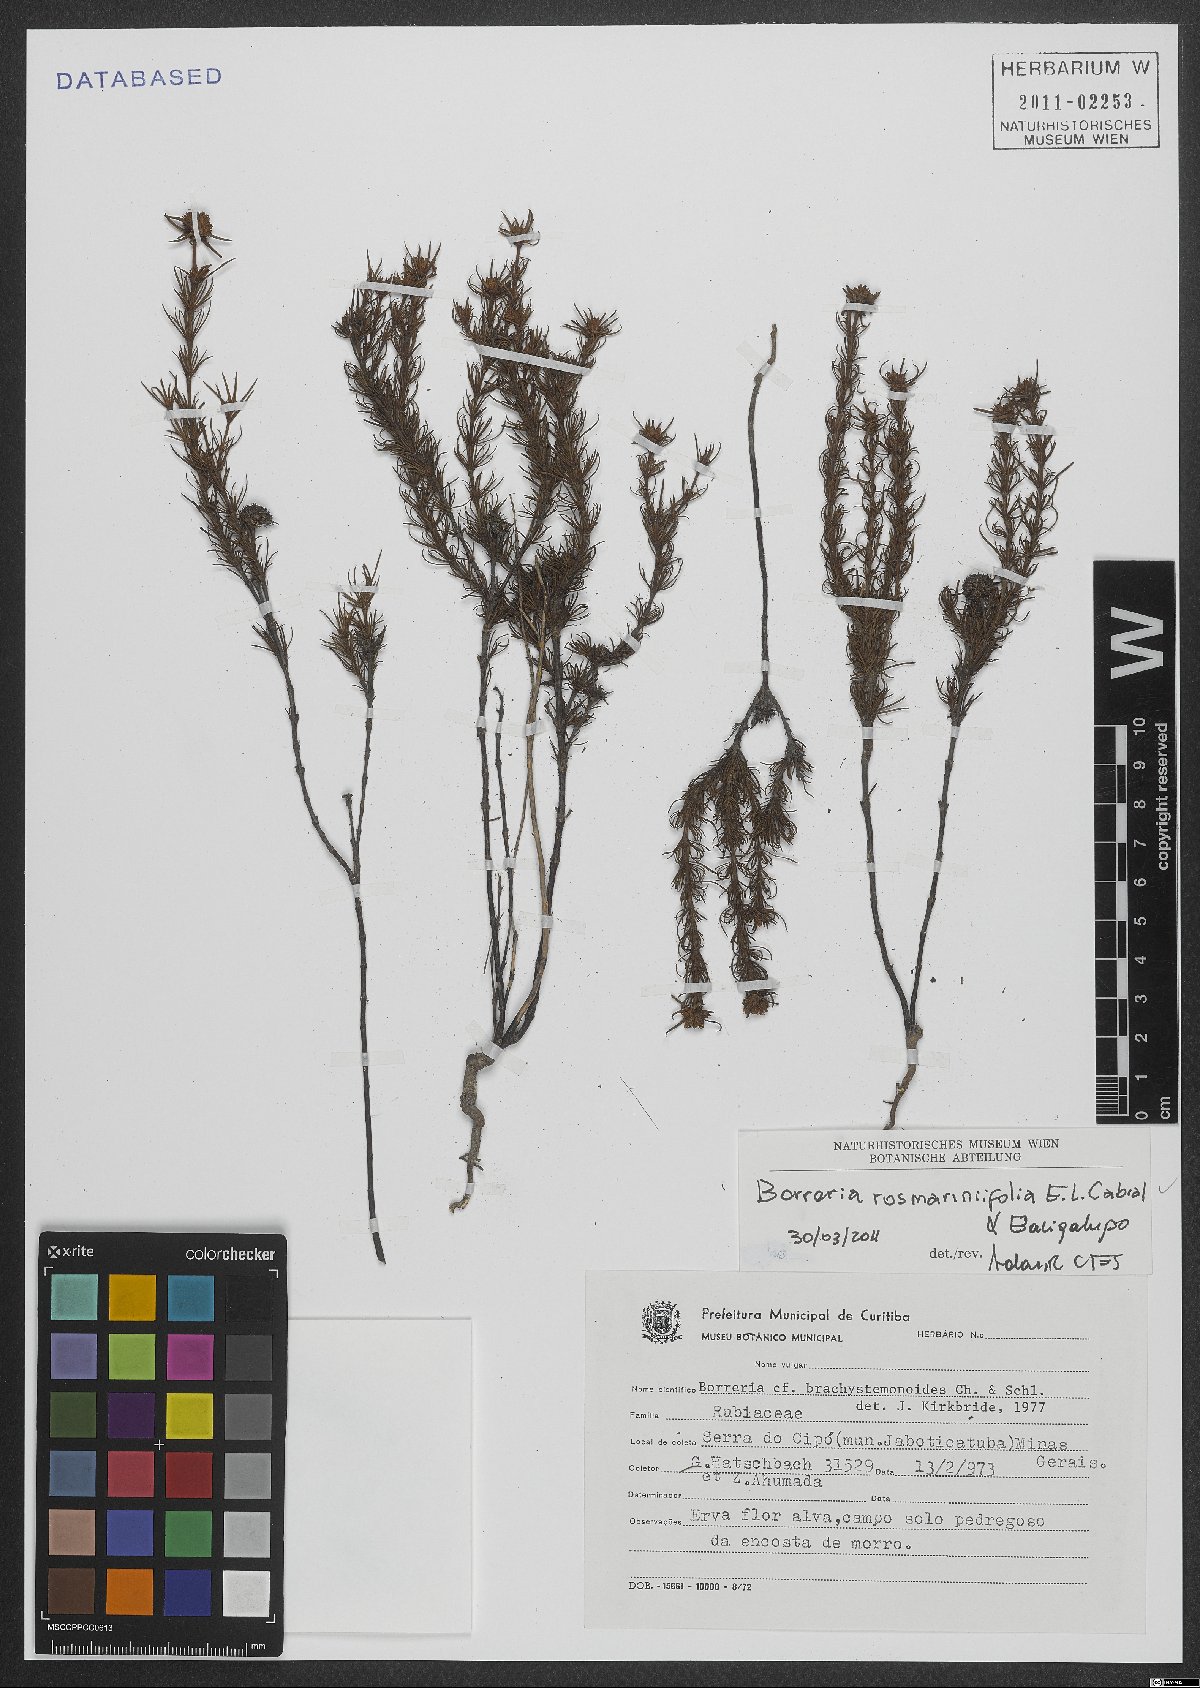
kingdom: Plantae
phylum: Tracheophyta
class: Magnoliopsida
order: Gentianales
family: Rubiaceae
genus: Spermacoce
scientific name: Spermacoce rosmarinifolia
